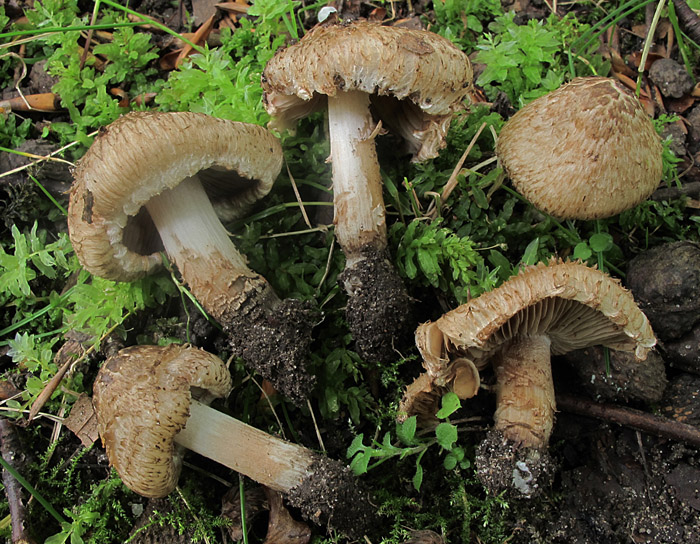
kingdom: Fungi
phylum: Basidiomycota
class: Agaricomycetes
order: Agaricales
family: Inocybaceae
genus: Inocybe
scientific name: Inocybe erinaceomorpha
